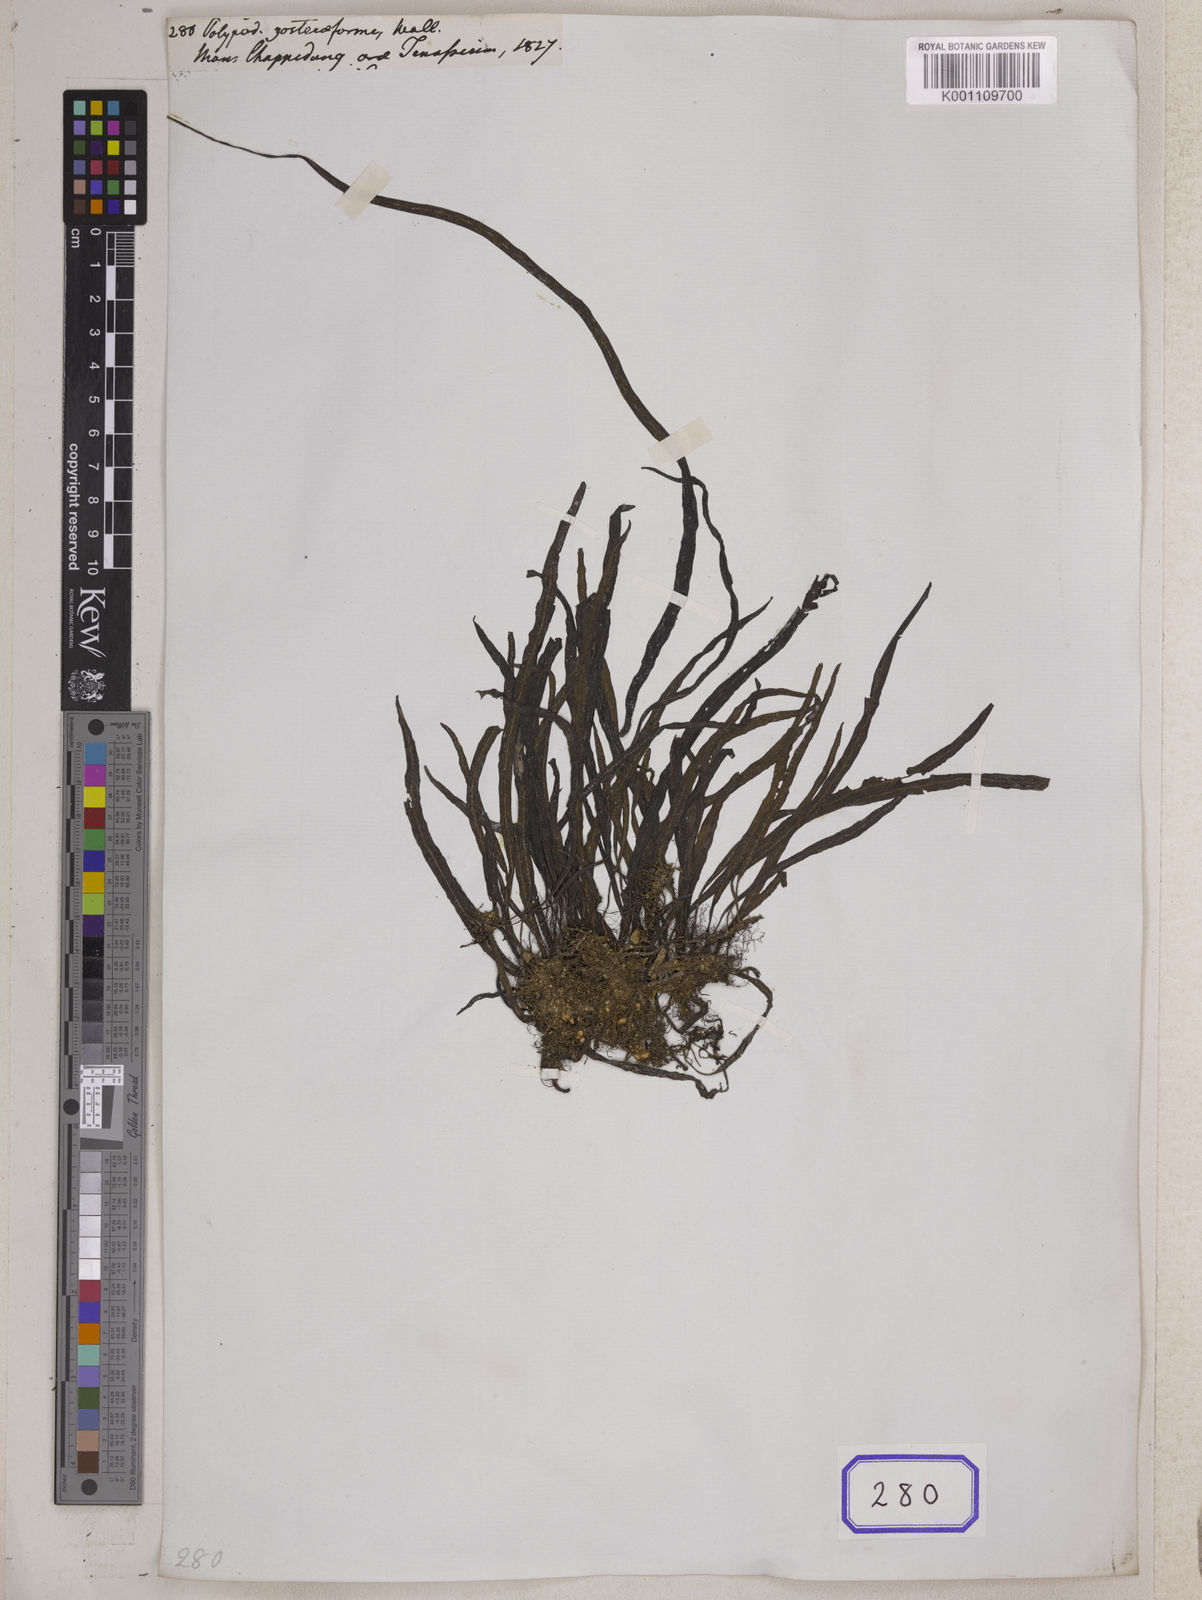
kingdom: Plantae
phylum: Tracheophyta
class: Polypodiopsida
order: Polypodiales
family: Polypodiaceae
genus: Leptochilus
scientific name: Leptochilus pteropus
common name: Java fern
